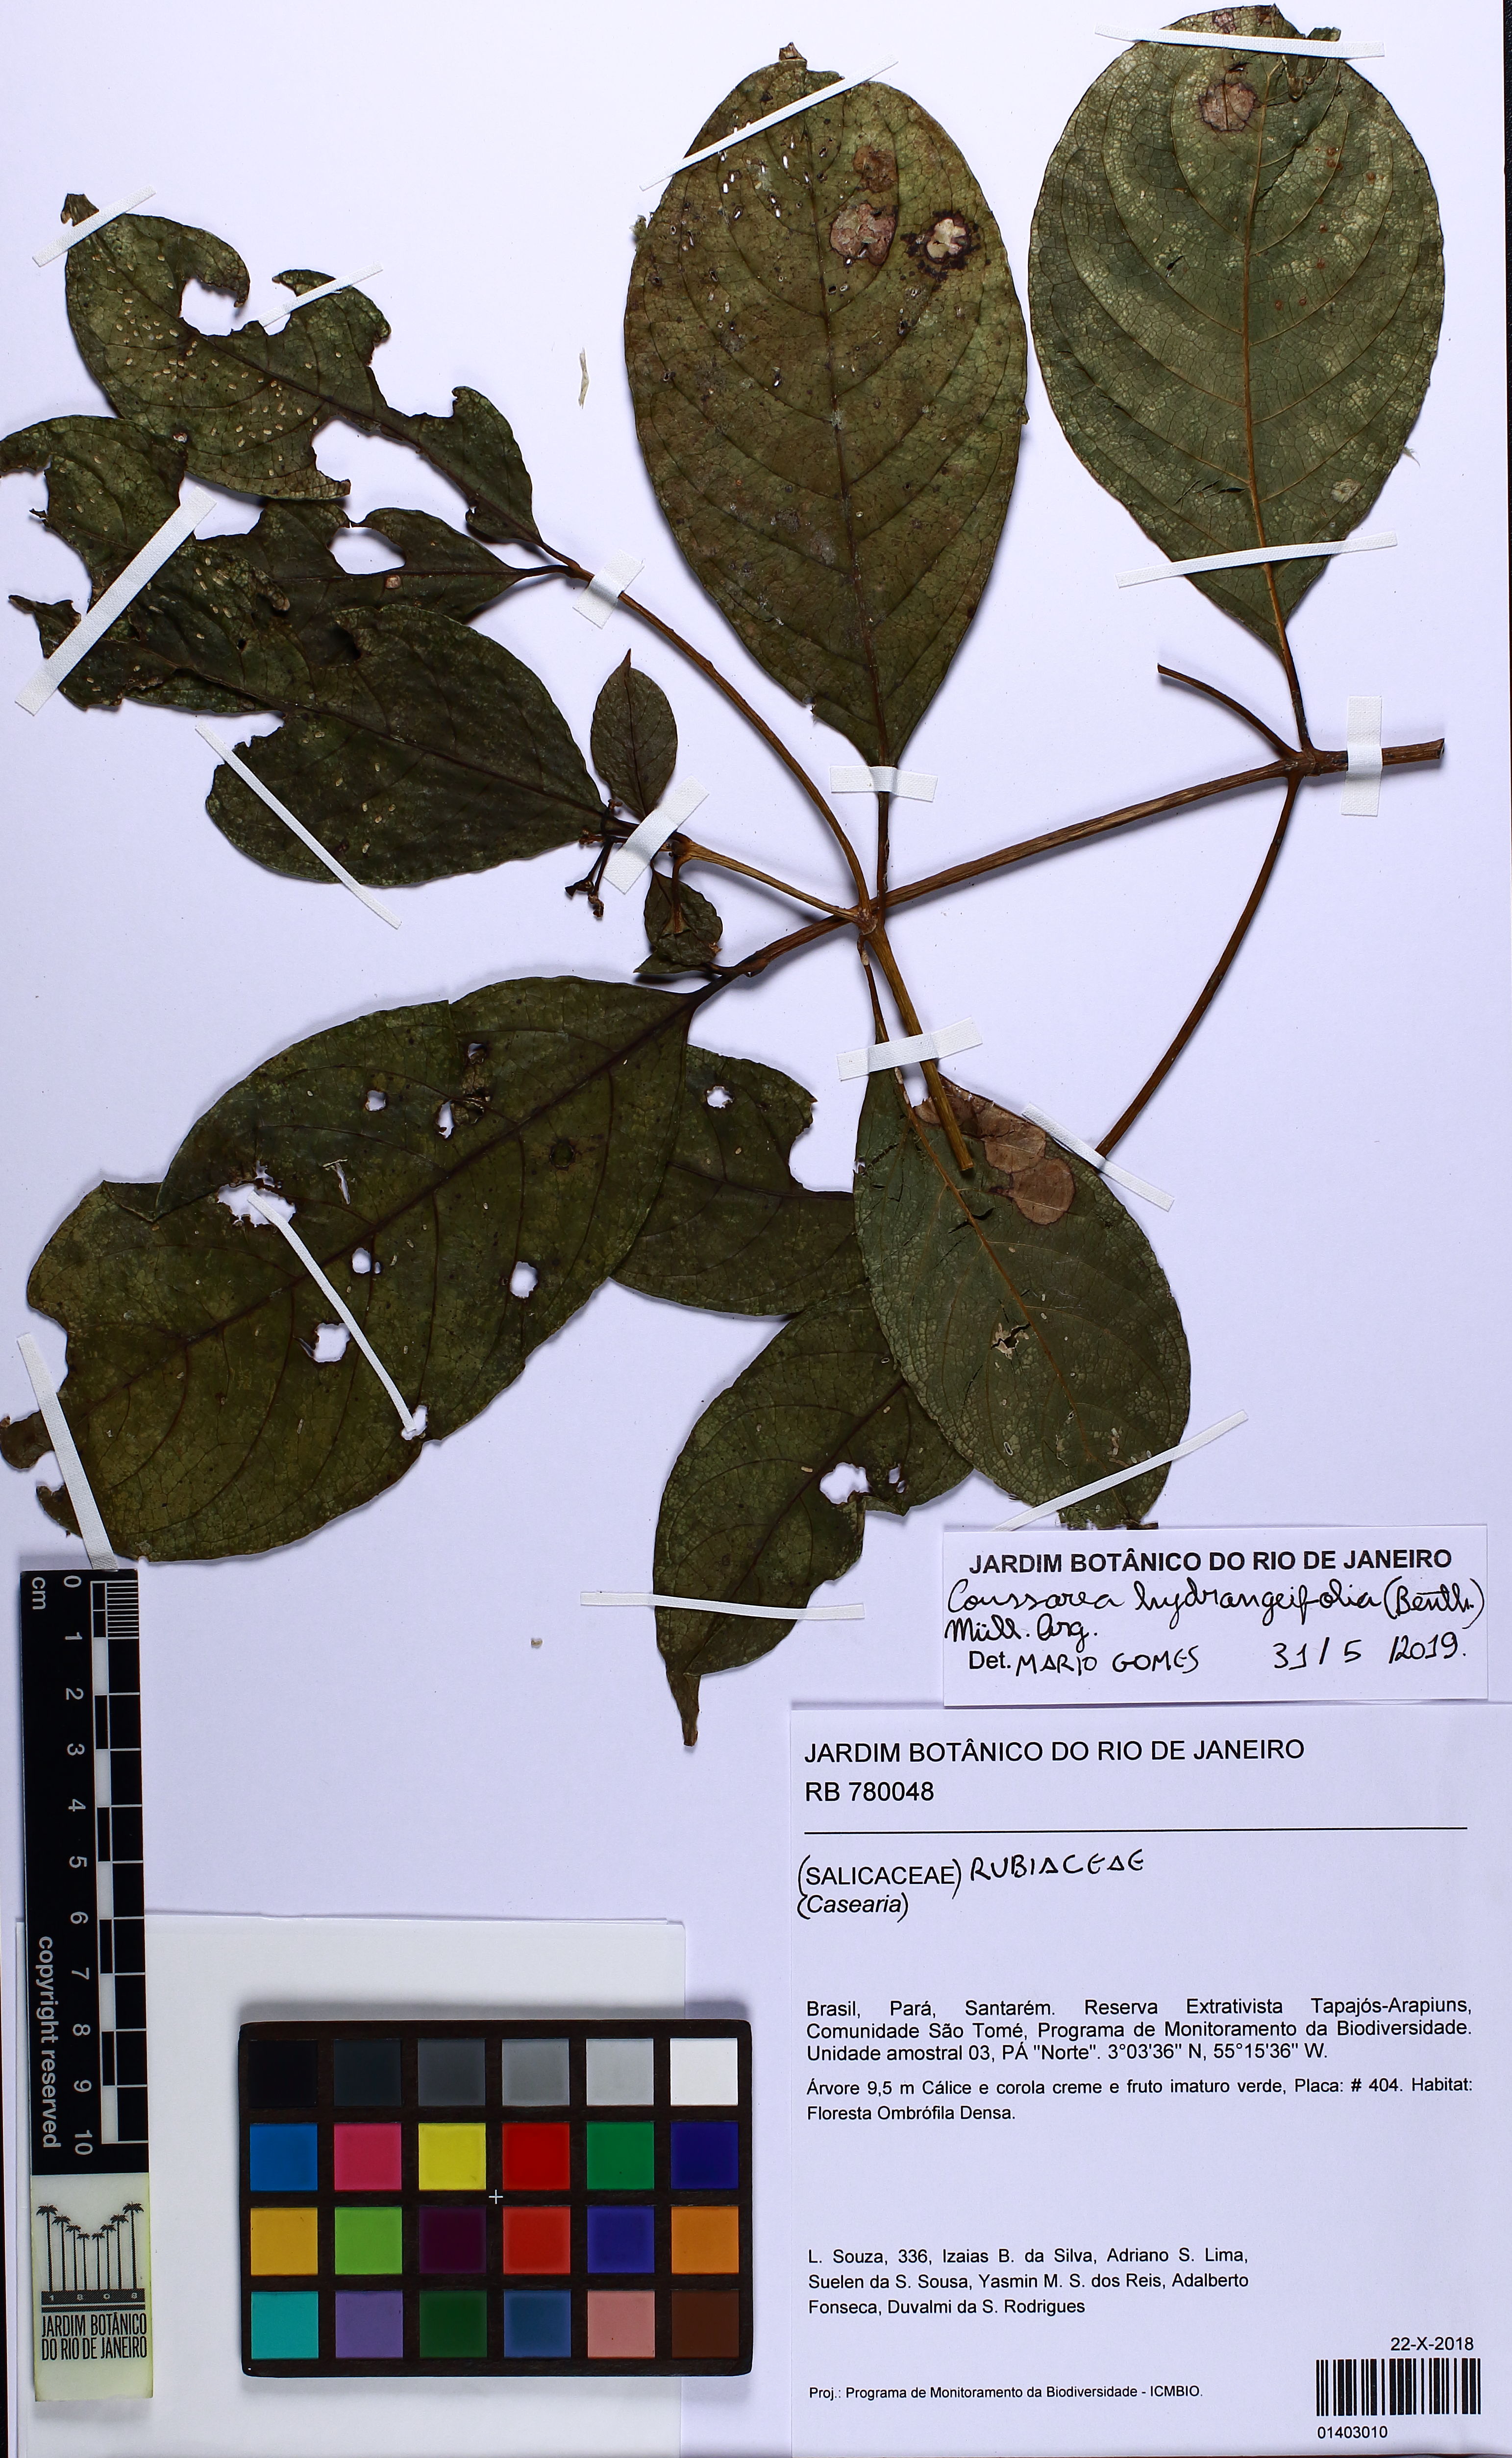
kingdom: Plantae
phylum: Tracheophyta
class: Magnoliopsida
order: Gentianales
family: Rubiaceae
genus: Coussarea
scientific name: Coussarea hydrangeifolia
